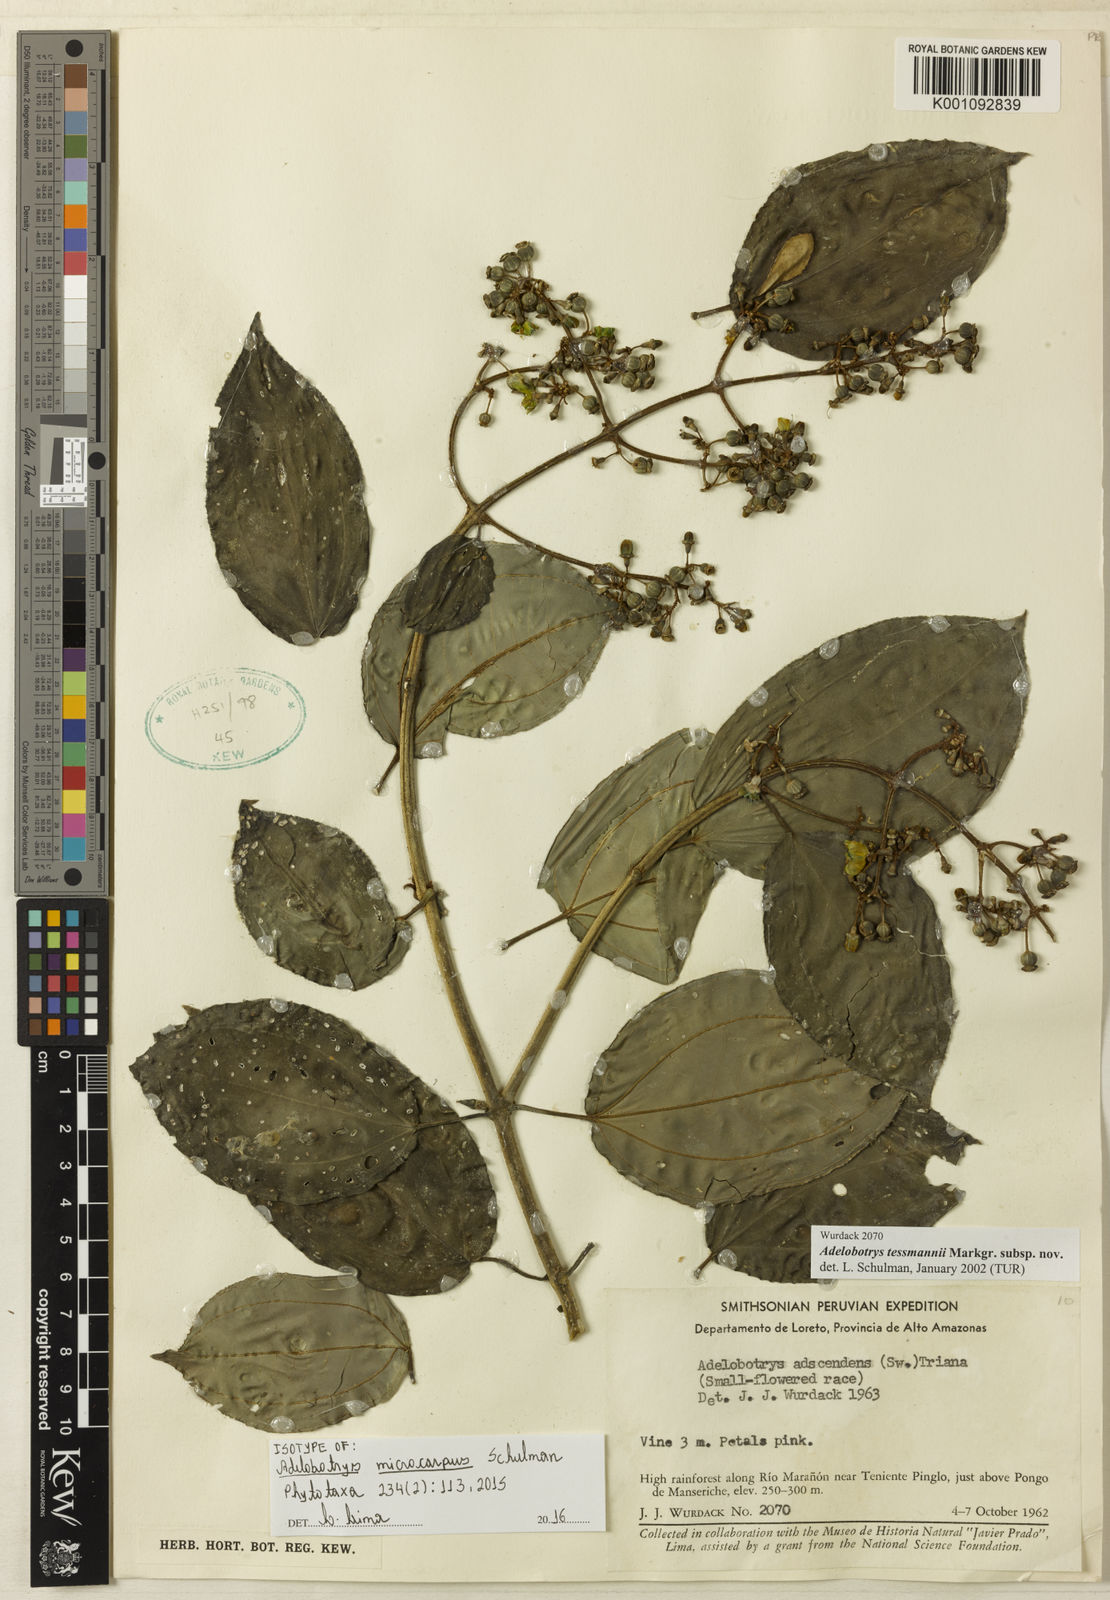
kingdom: Plantae
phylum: Tracheophyta
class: Magnoliopsida
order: Myrtales
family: Melastomataceae
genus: Adelobotrys
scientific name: Adelobotrys microcarpus
